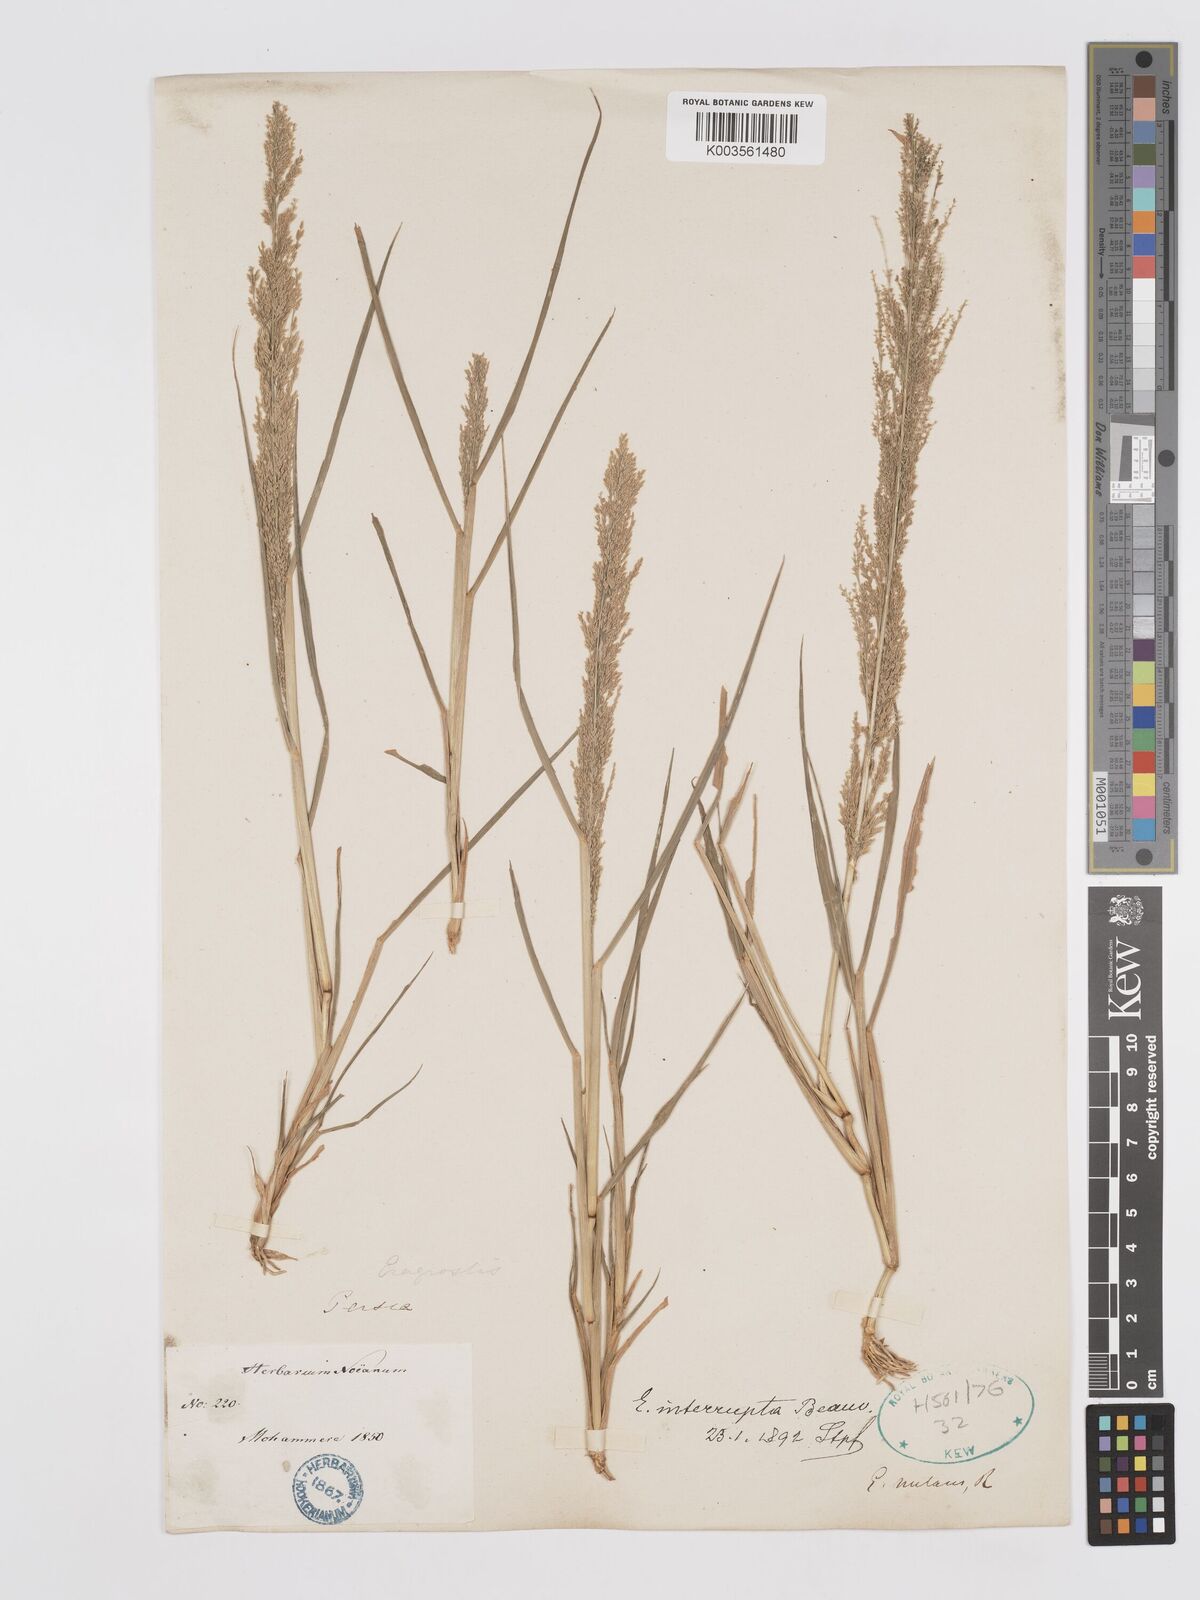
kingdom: Plantae
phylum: Tracheophyta
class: Liliopsida
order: Poales
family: Poaceae
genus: Eragrostis
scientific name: Eragrostis japonica
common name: Pond lovegrass
